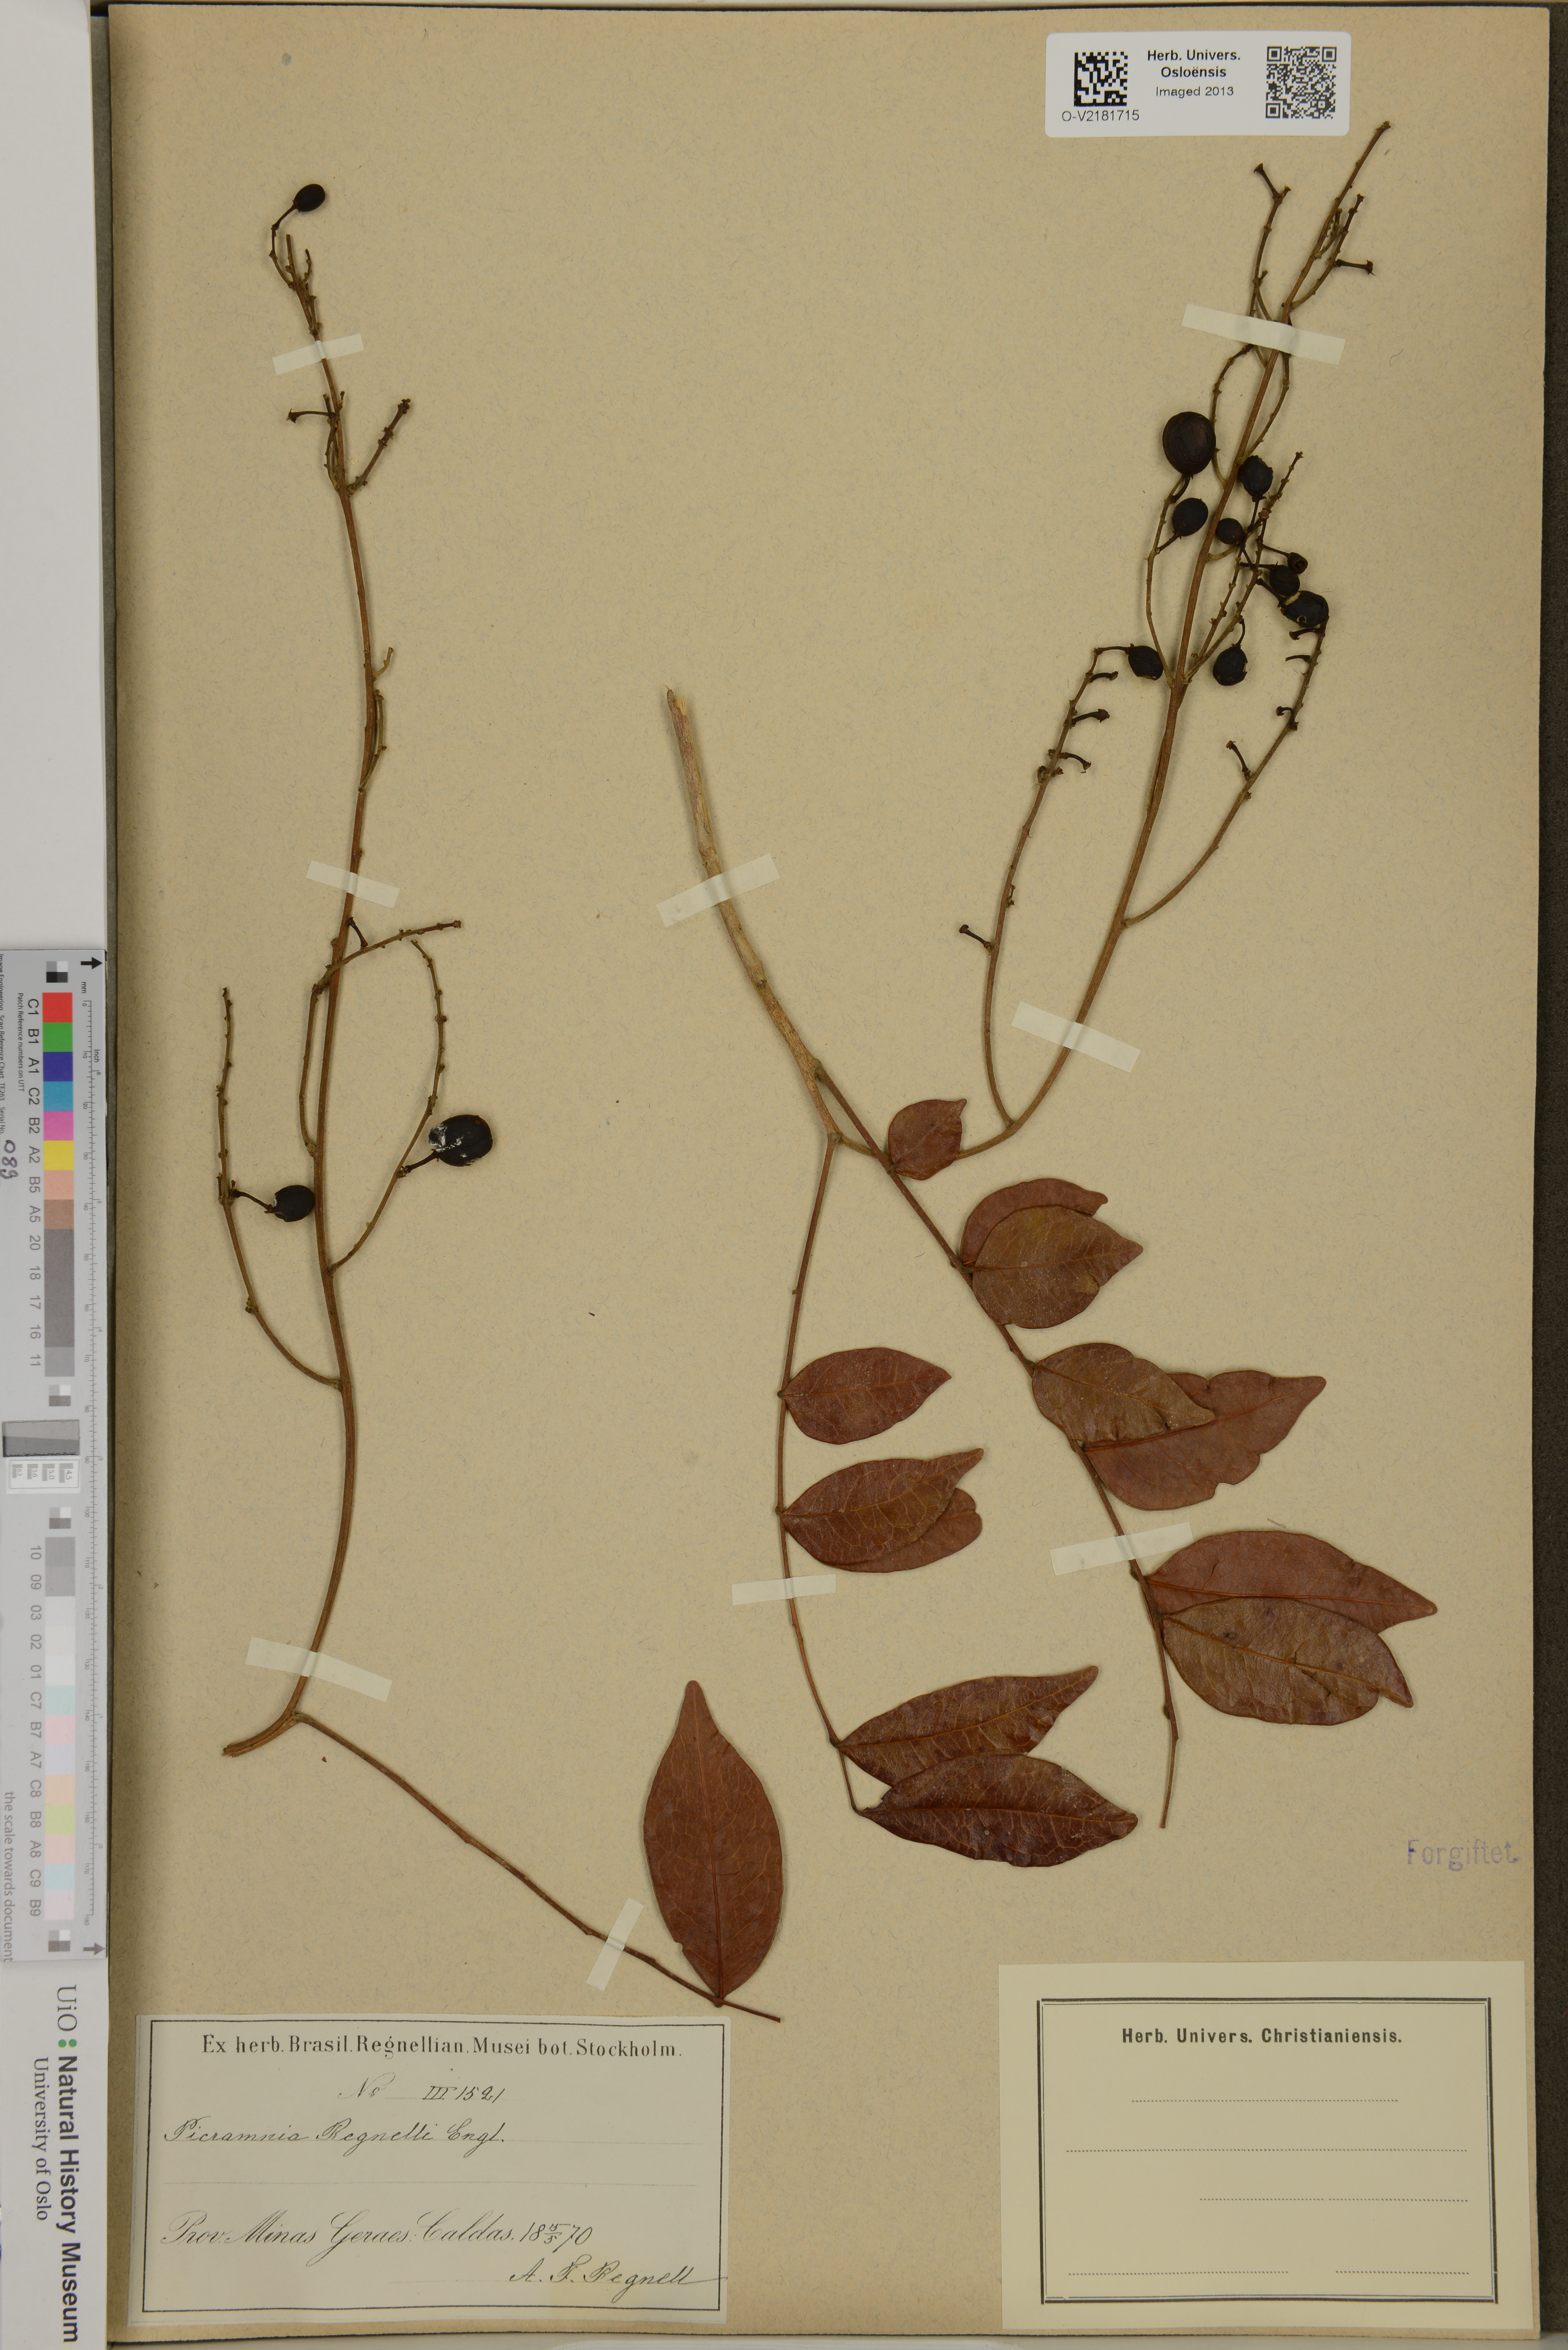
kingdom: Plantae
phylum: Tracheophyta
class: Magnoliopsida
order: Picramniales
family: Picramniaceae
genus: Picramnia
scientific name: Picramnia parvifolia
